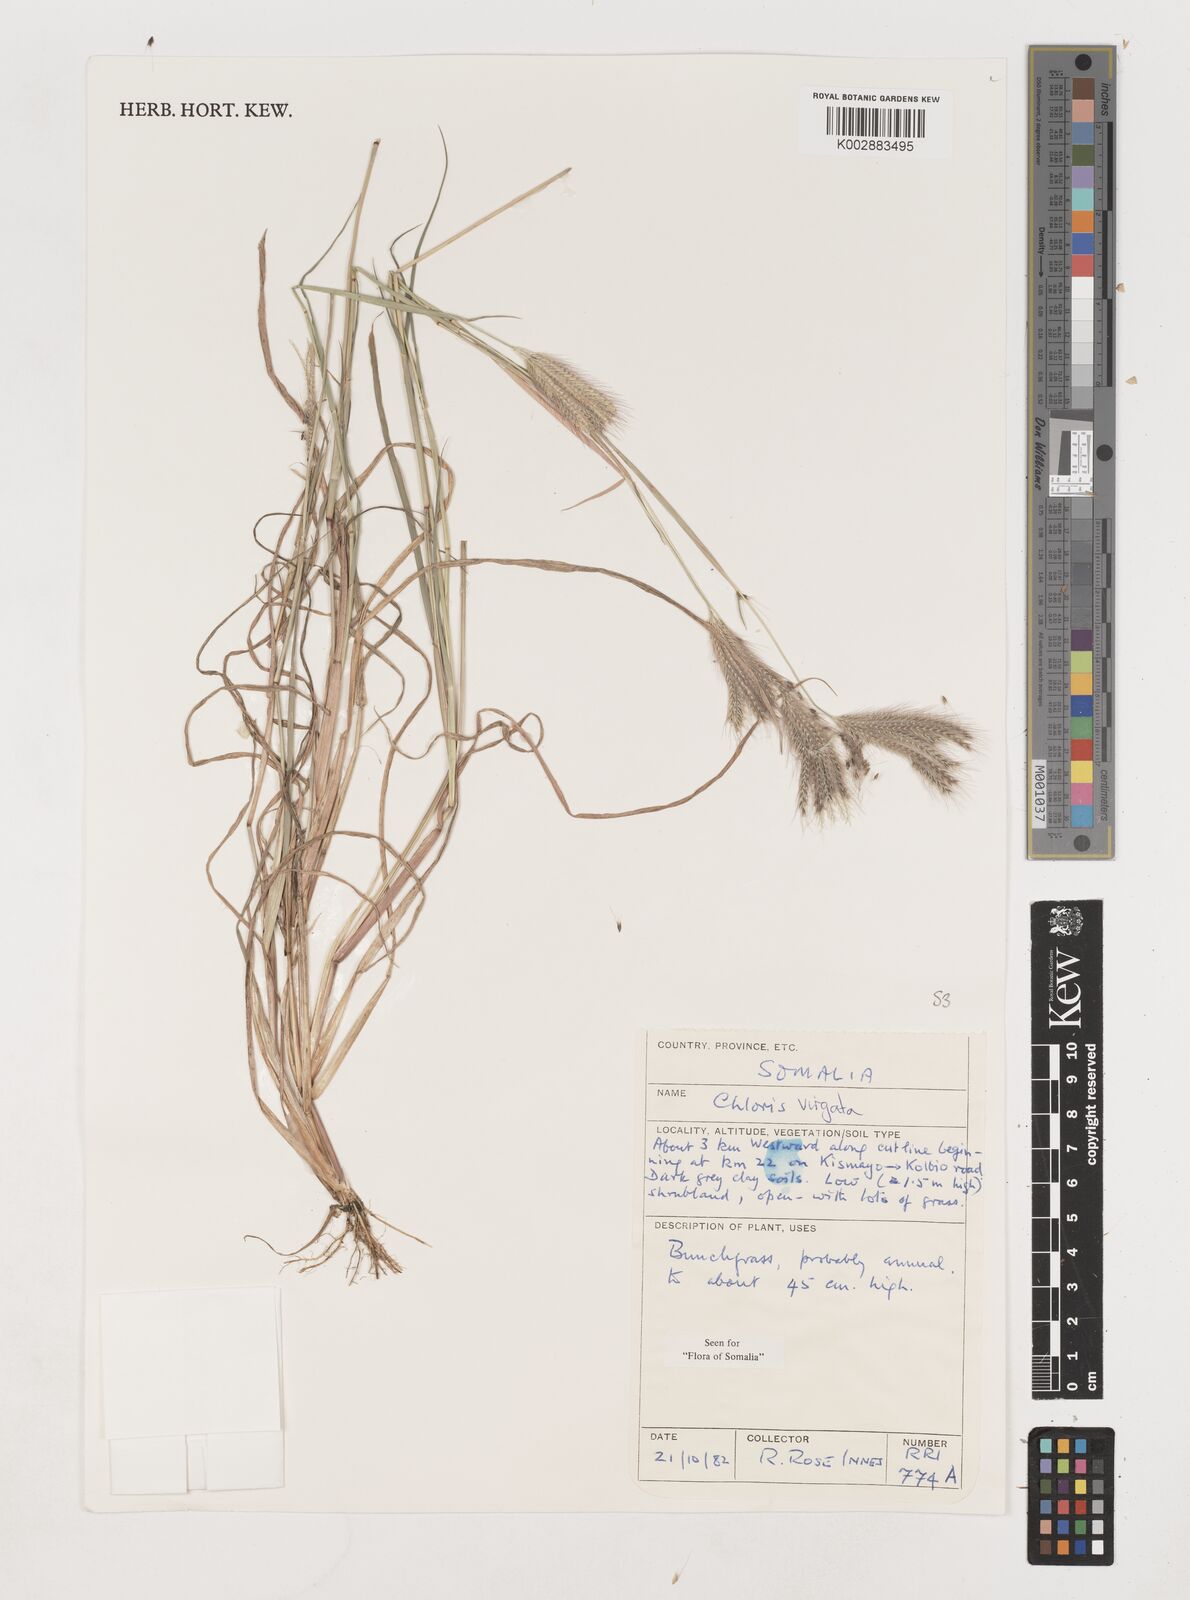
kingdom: Plantae
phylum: Tracheophyta
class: Liliopsida
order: Poales
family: Poaceae
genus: Chloris
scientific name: Chloris virgata
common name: Feathery rhodes-grass
